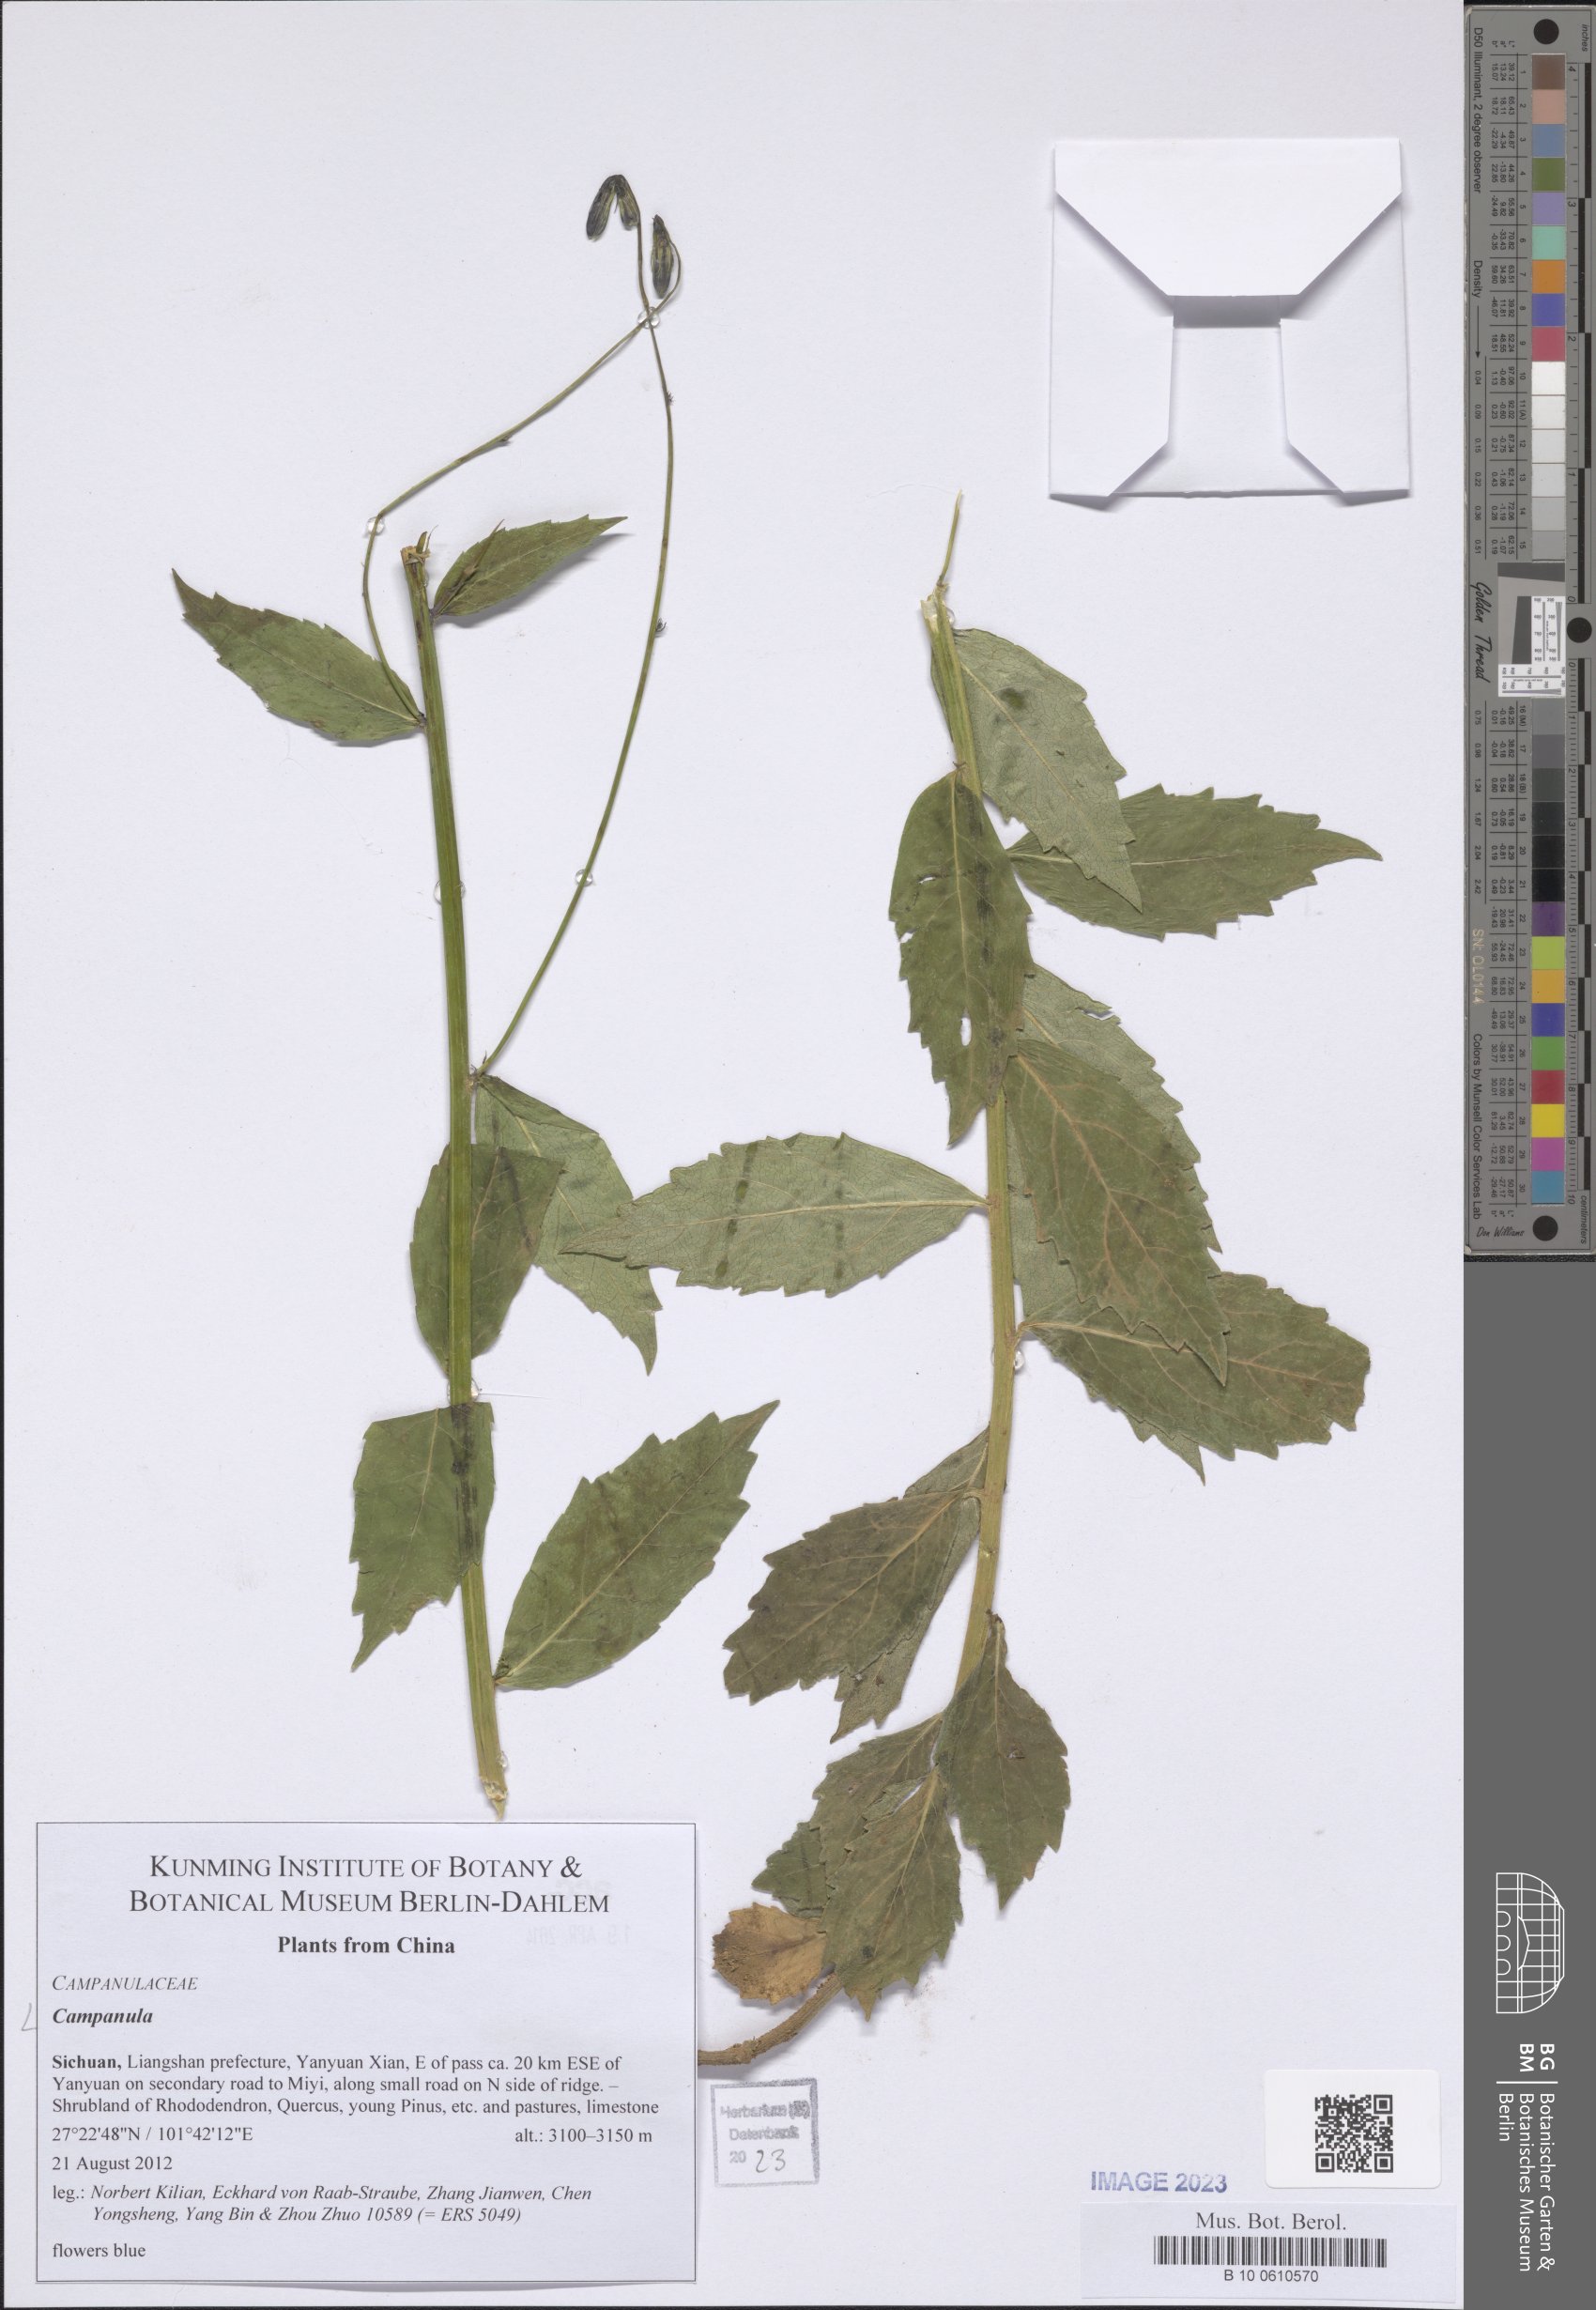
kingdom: Plantae
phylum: Tracheophyta
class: Magnoliopsida
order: Asterales
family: Campanulaceae
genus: Campanula
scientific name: Campanula
